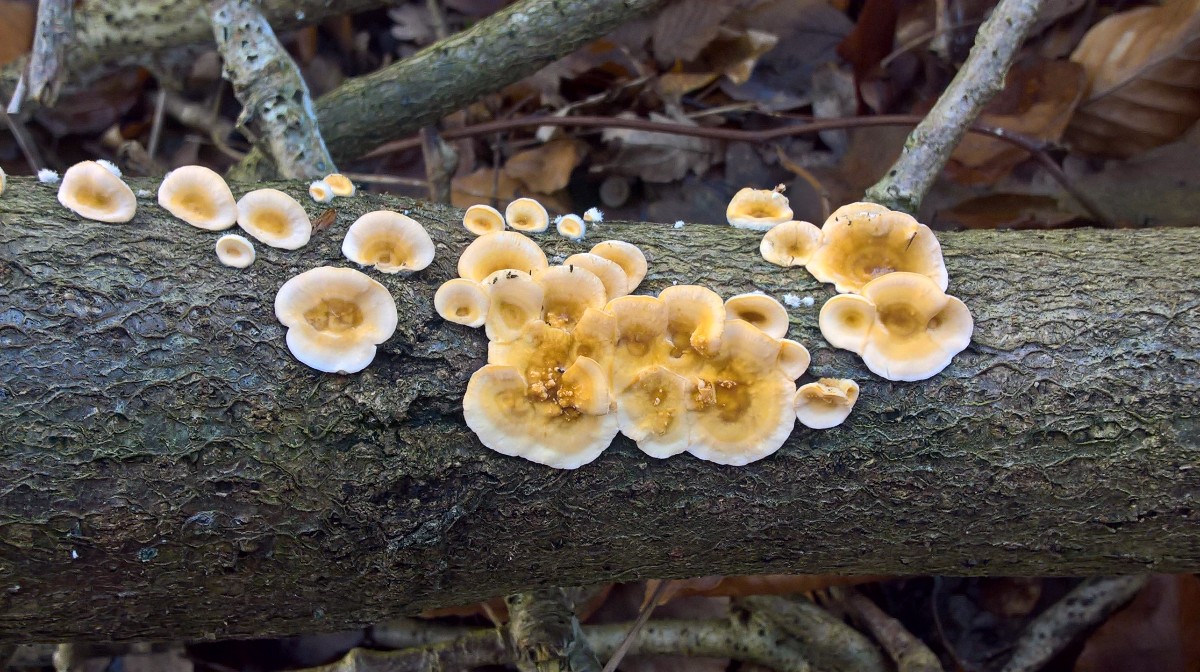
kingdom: Fungi
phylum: Basidiomycota
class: Agaricomycetes
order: Russulales
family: Stereaceae
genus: Stereum
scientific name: Stereum hirsutum
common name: håret lædersvamp
